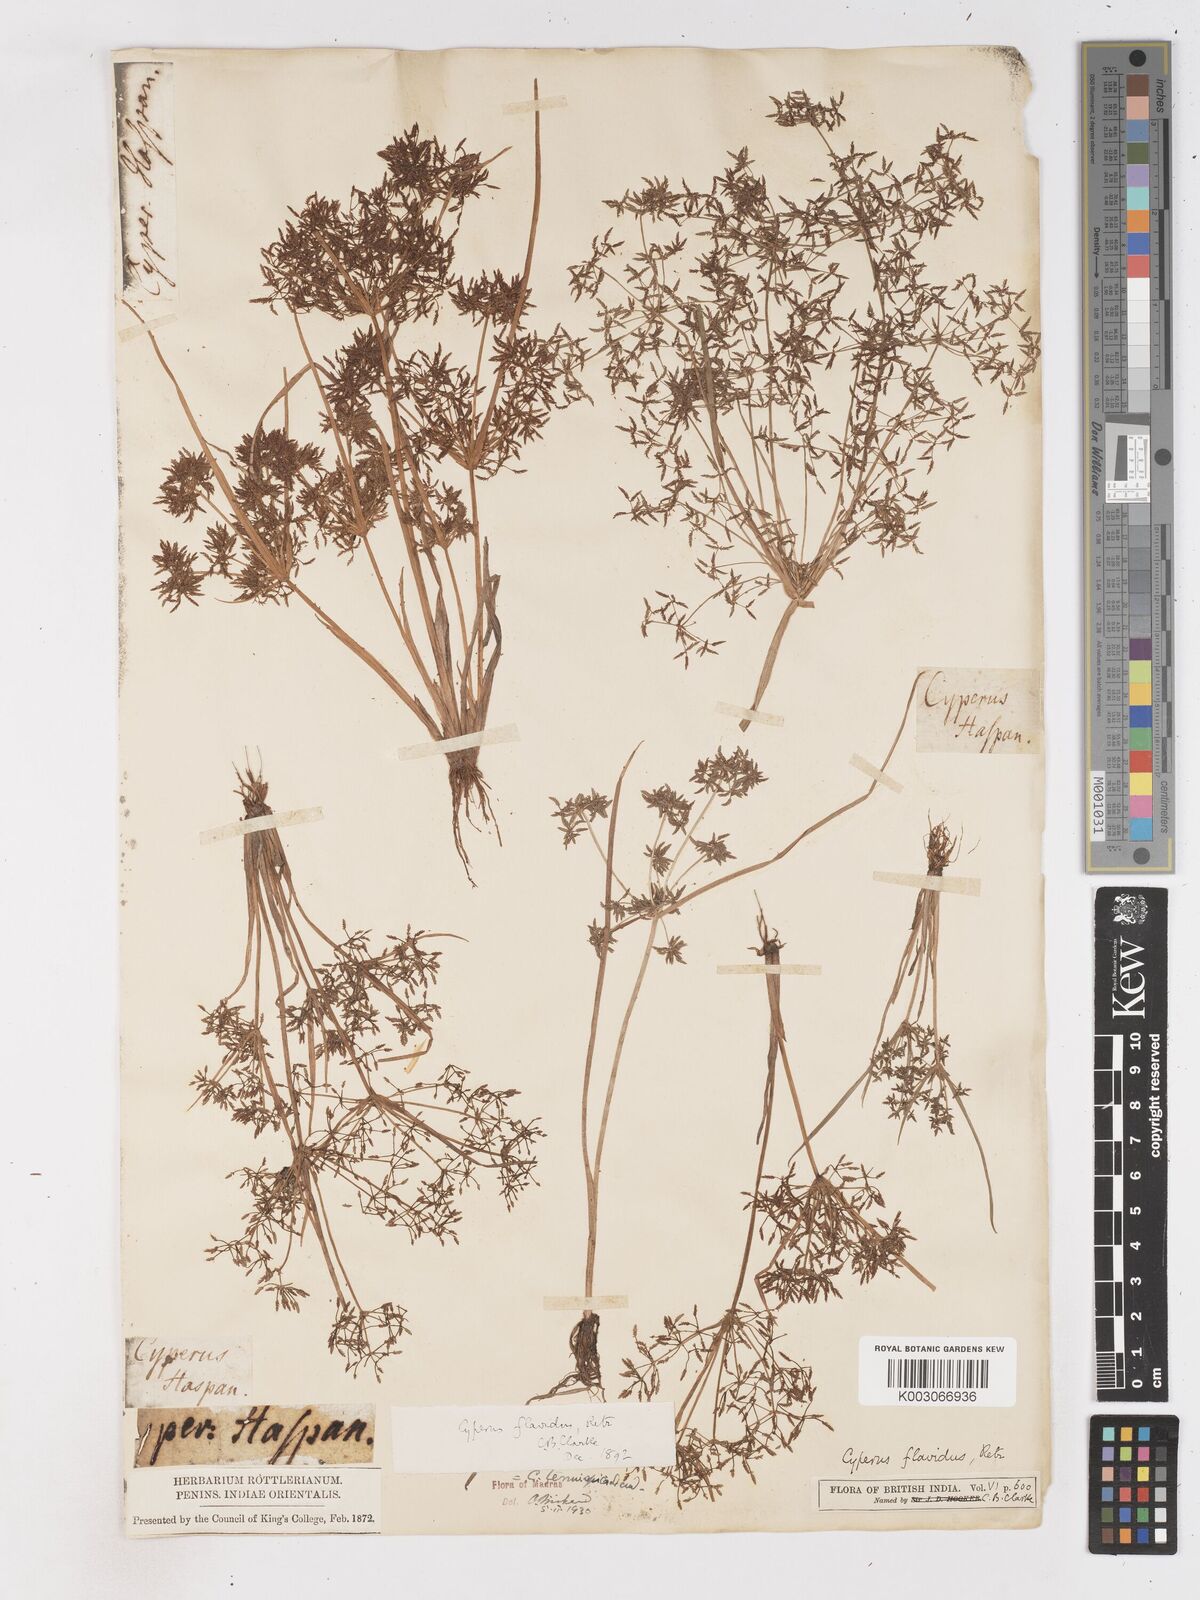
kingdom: Plantae
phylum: Tracheophyta
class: Liliopsida
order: Poales
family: Cyperaceae
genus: Cyperus
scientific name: Cyperus tenuispica
